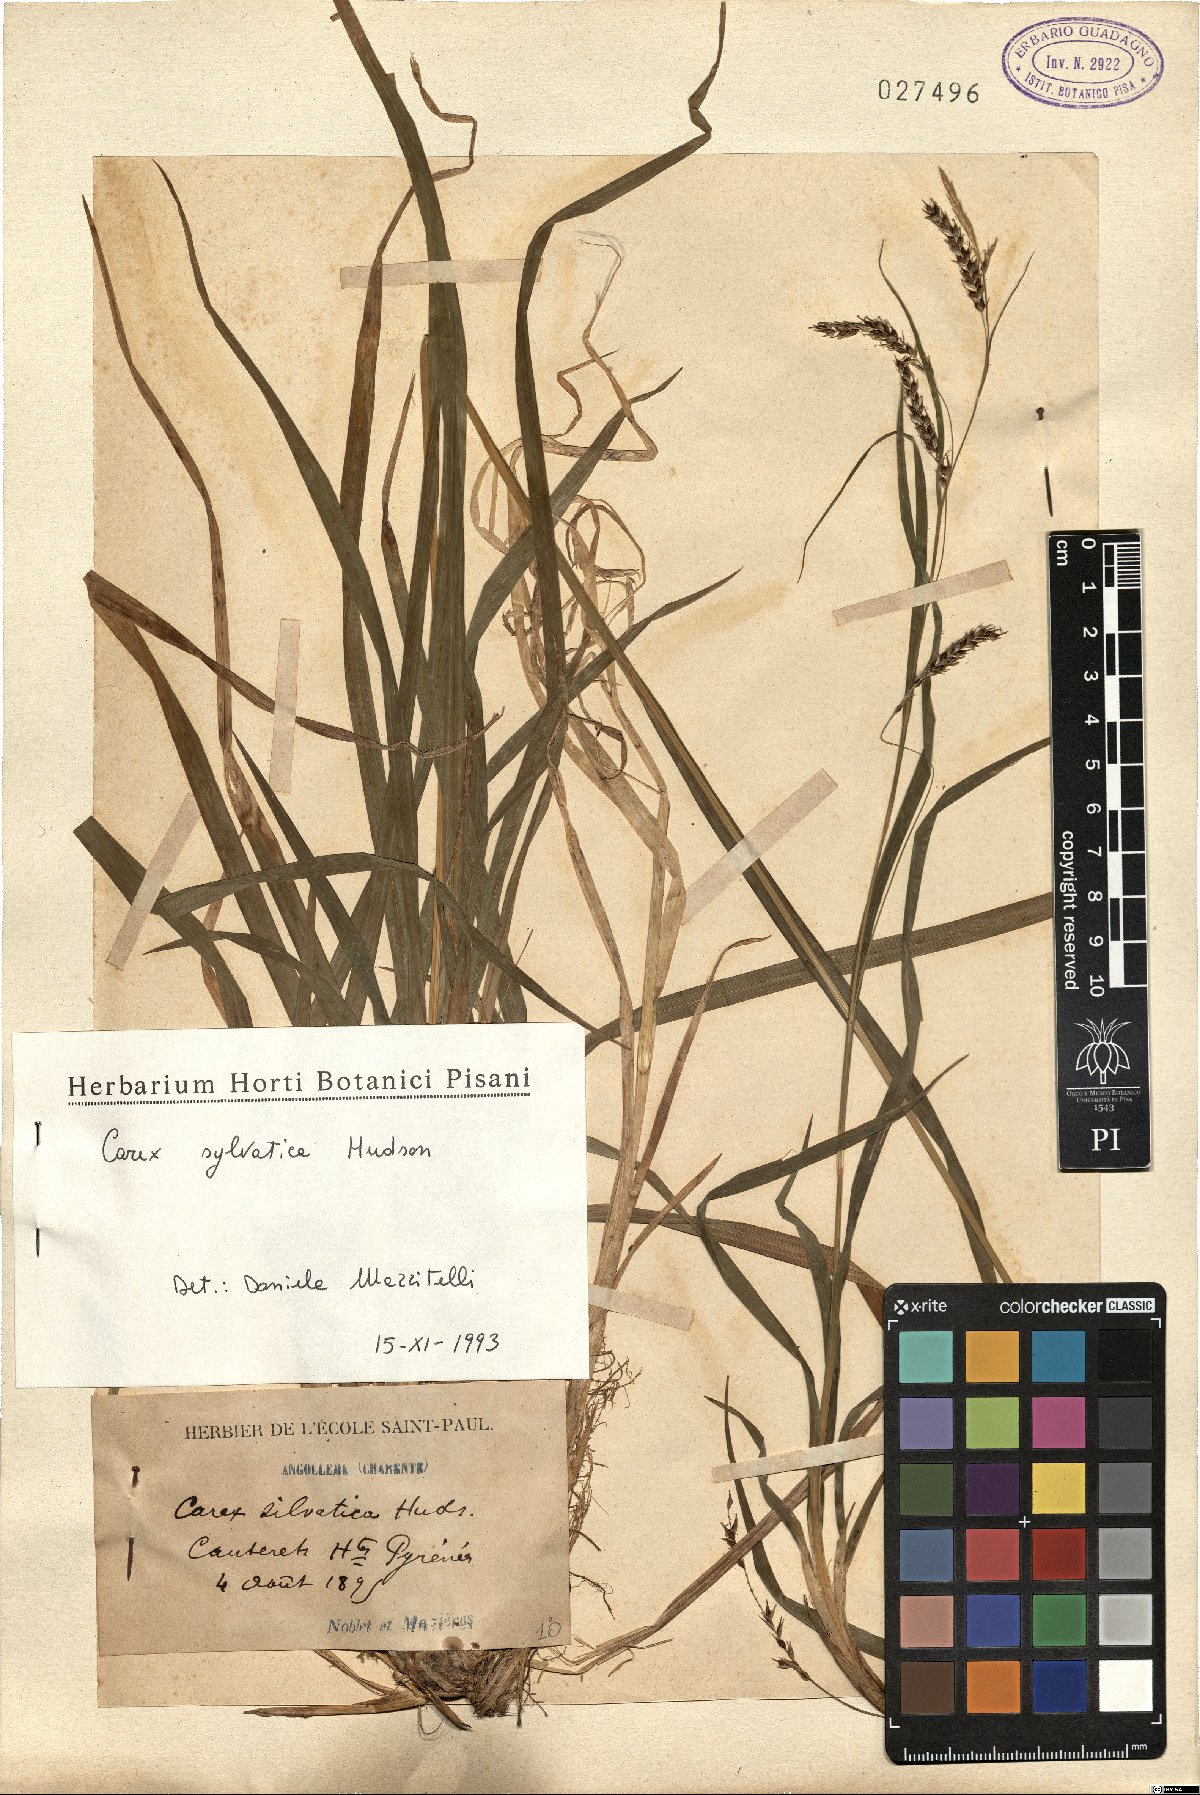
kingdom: Plantae
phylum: Tracheophyta
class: Liliopsida
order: Poales
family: Cyperaceae
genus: Carex
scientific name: Carex sylvatica
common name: Wood-sedge
